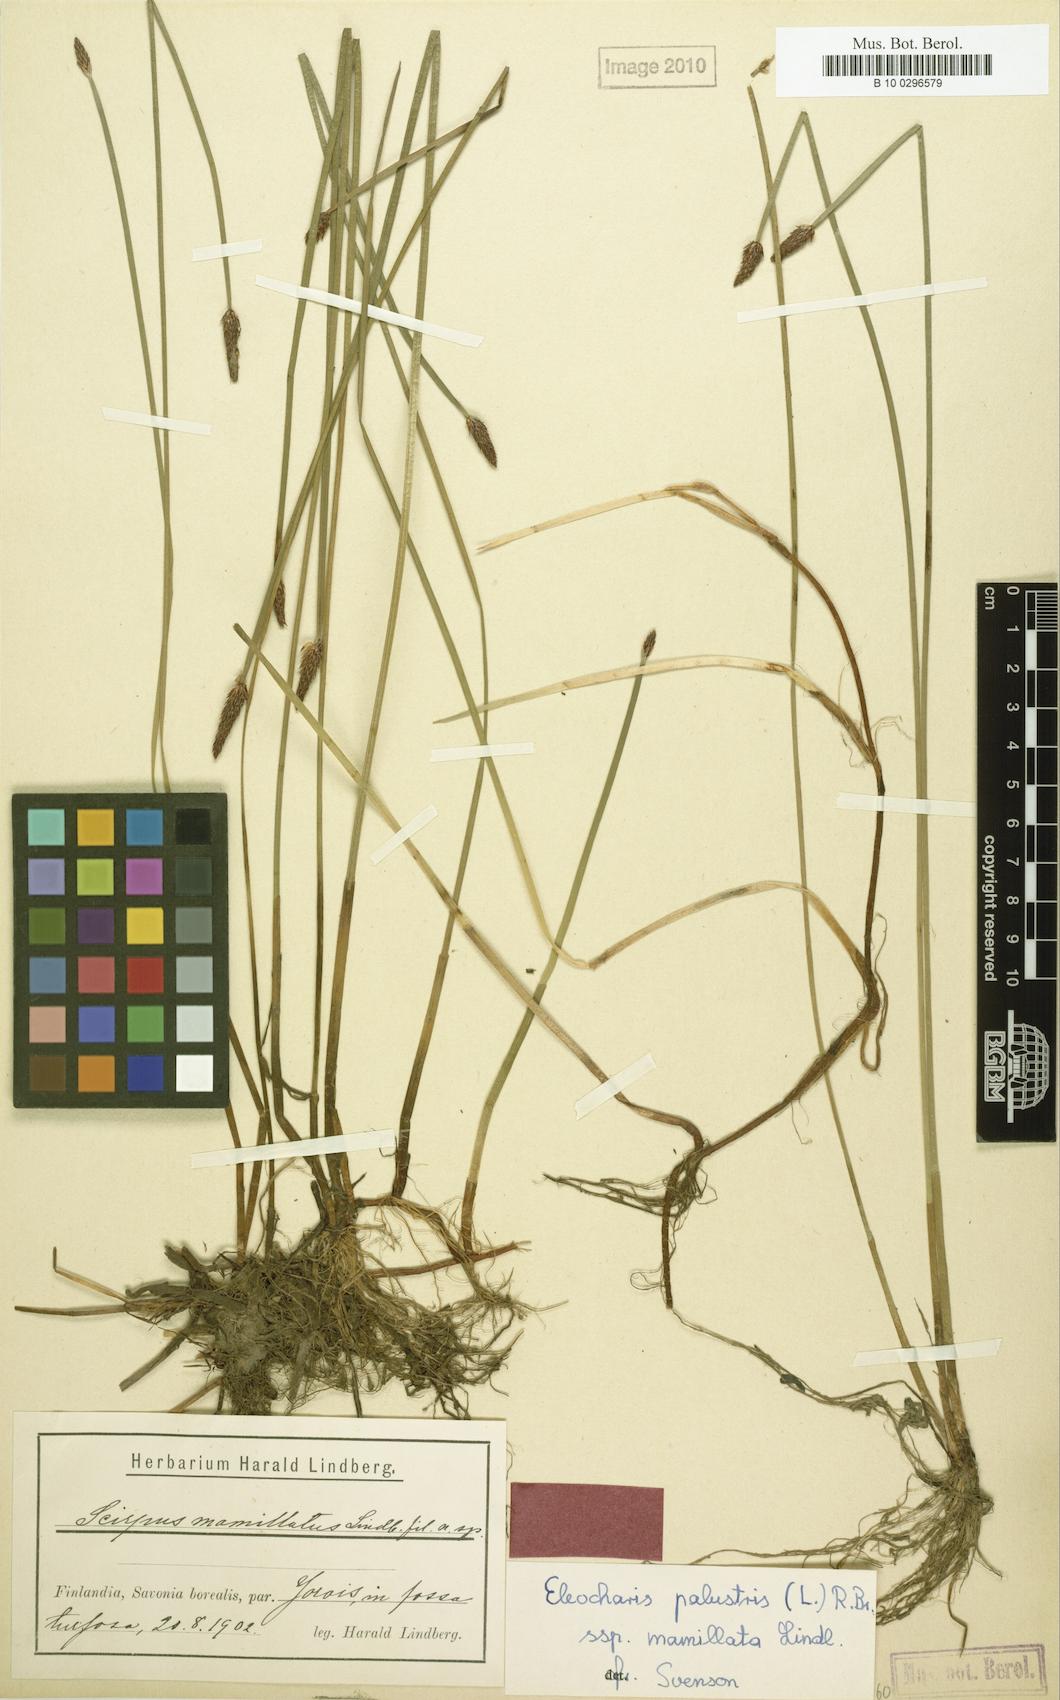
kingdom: Plantae
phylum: Tracheophyta
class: Liliopsida
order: Poales
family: Cyperaceae
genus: Eleocharis
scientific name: Eleocharis mamillata
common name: Northern spike-rush
